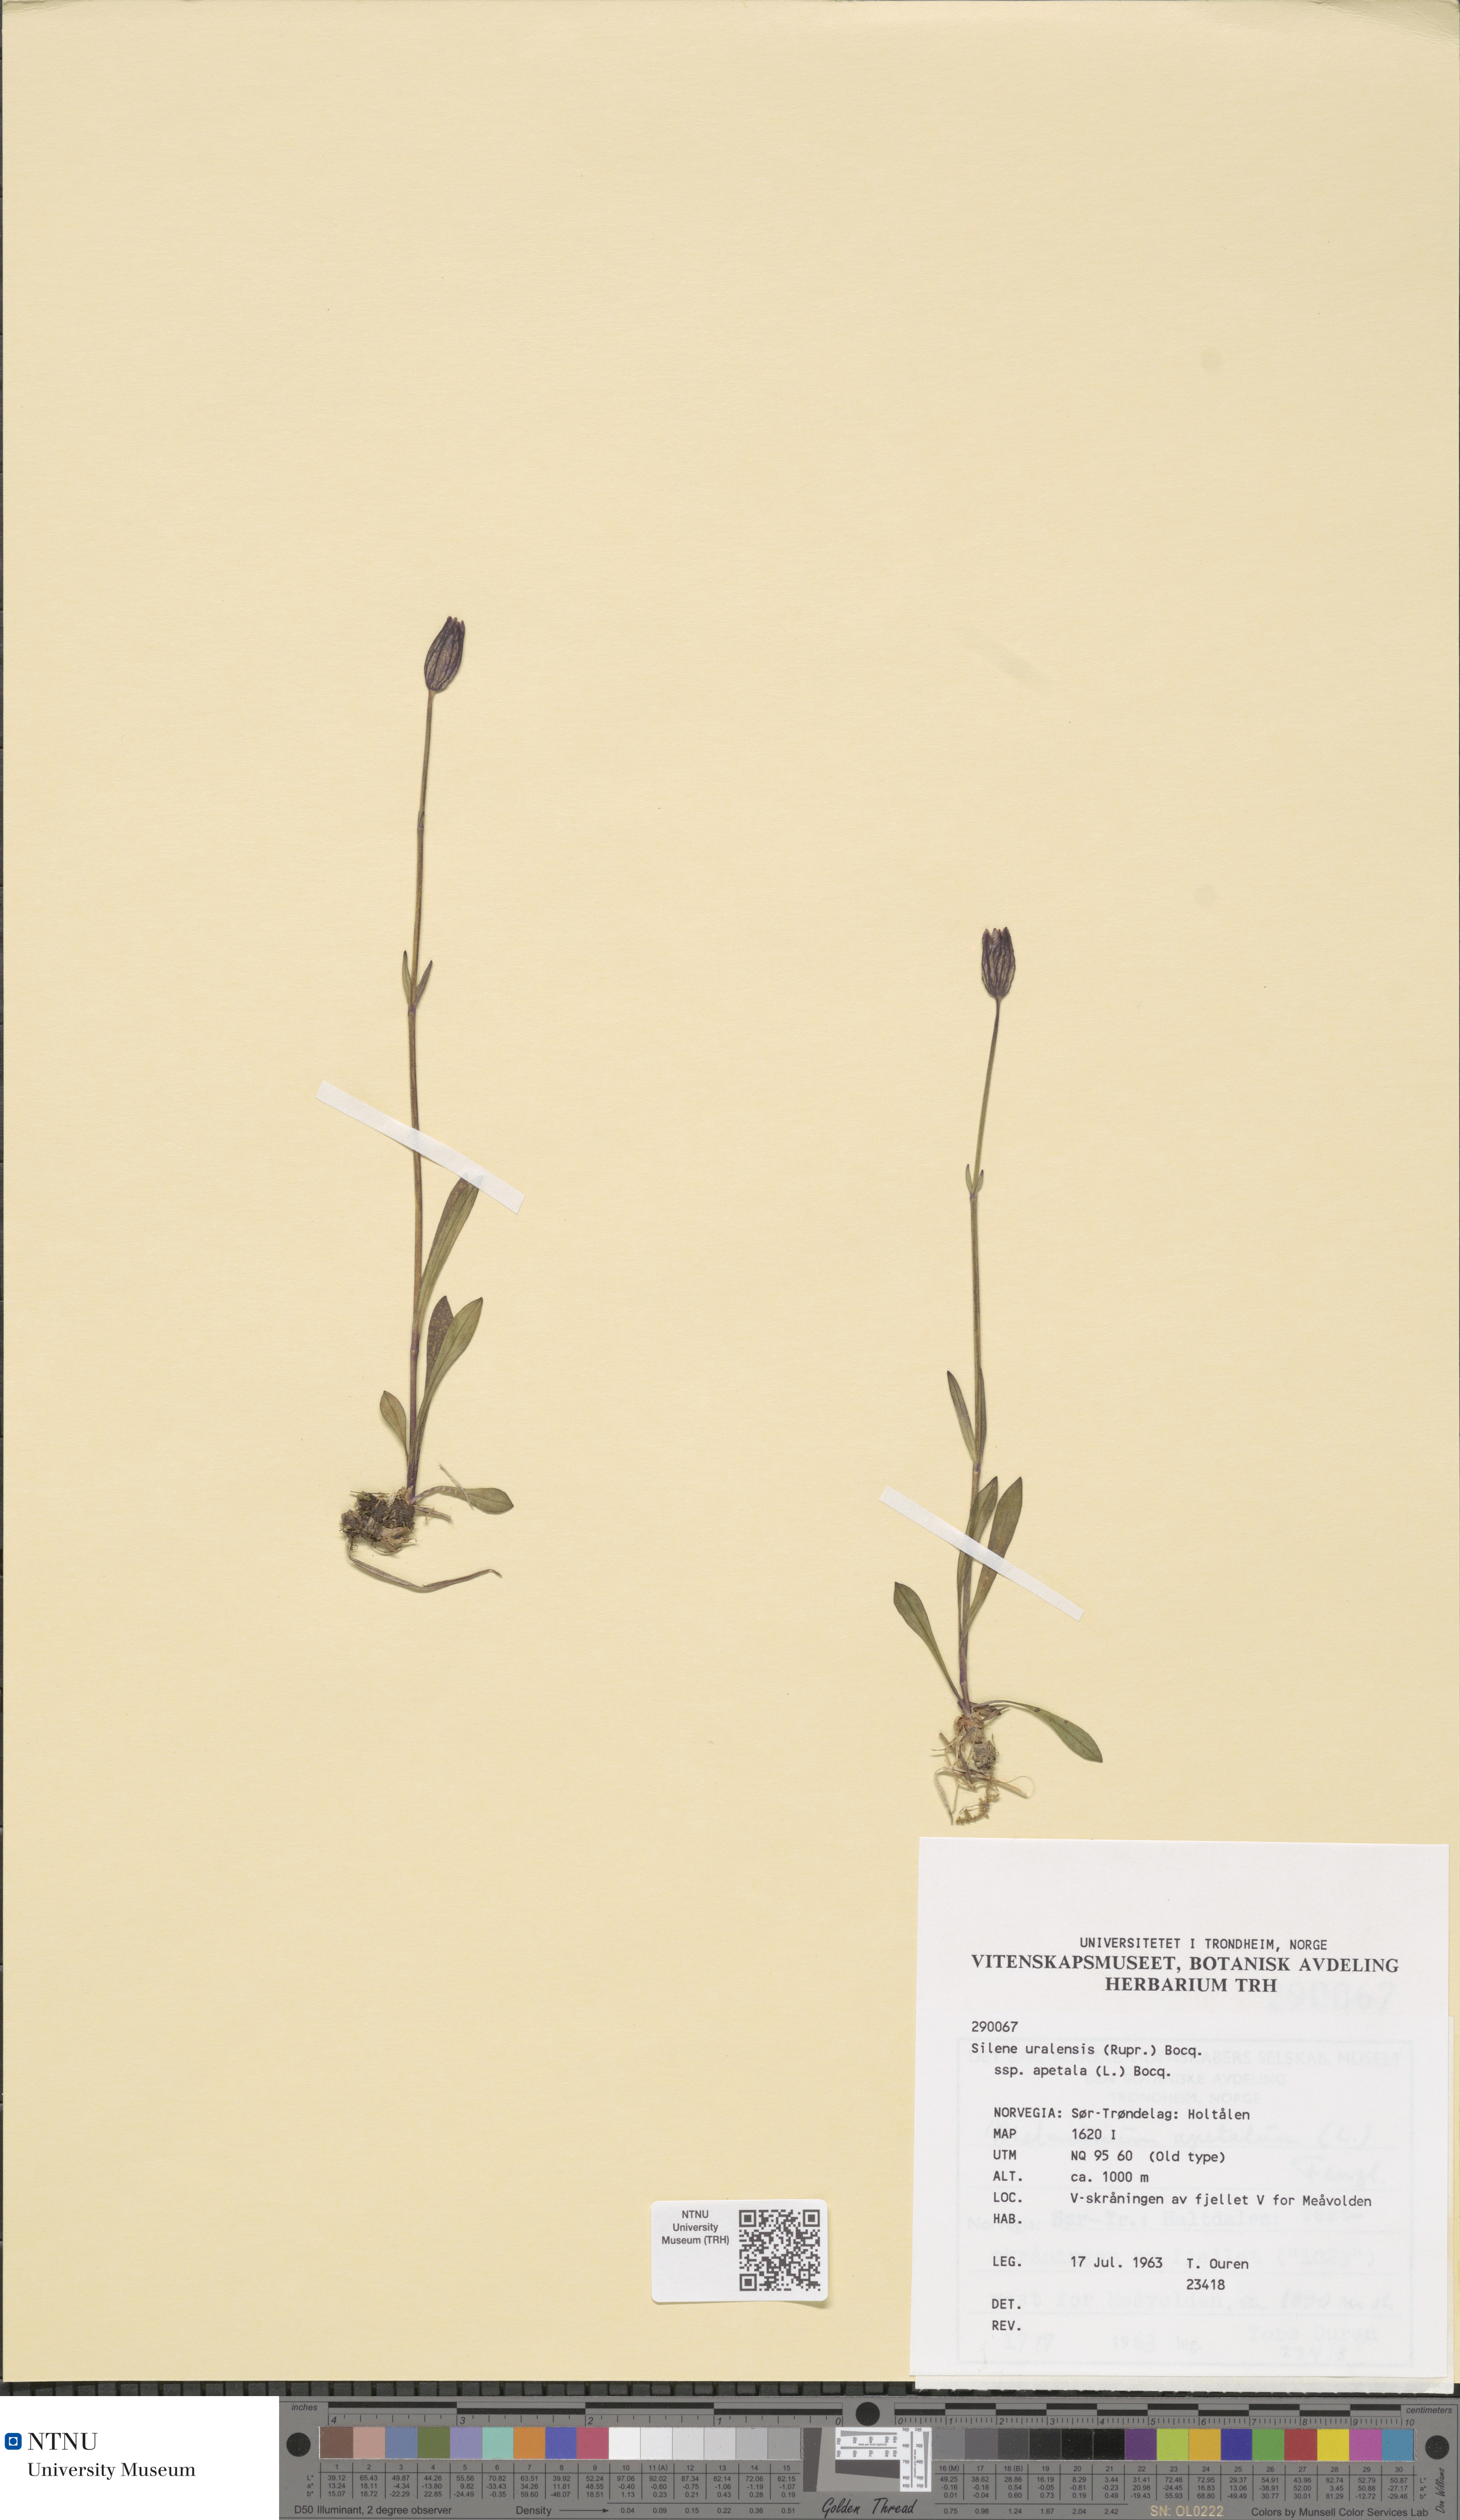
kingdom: Plantae
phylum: Tracheophyta
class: Magnoliopsida
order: Caryophyllales
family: Caryophyllaceae
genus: Silene
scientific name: Silene wahlbergella
